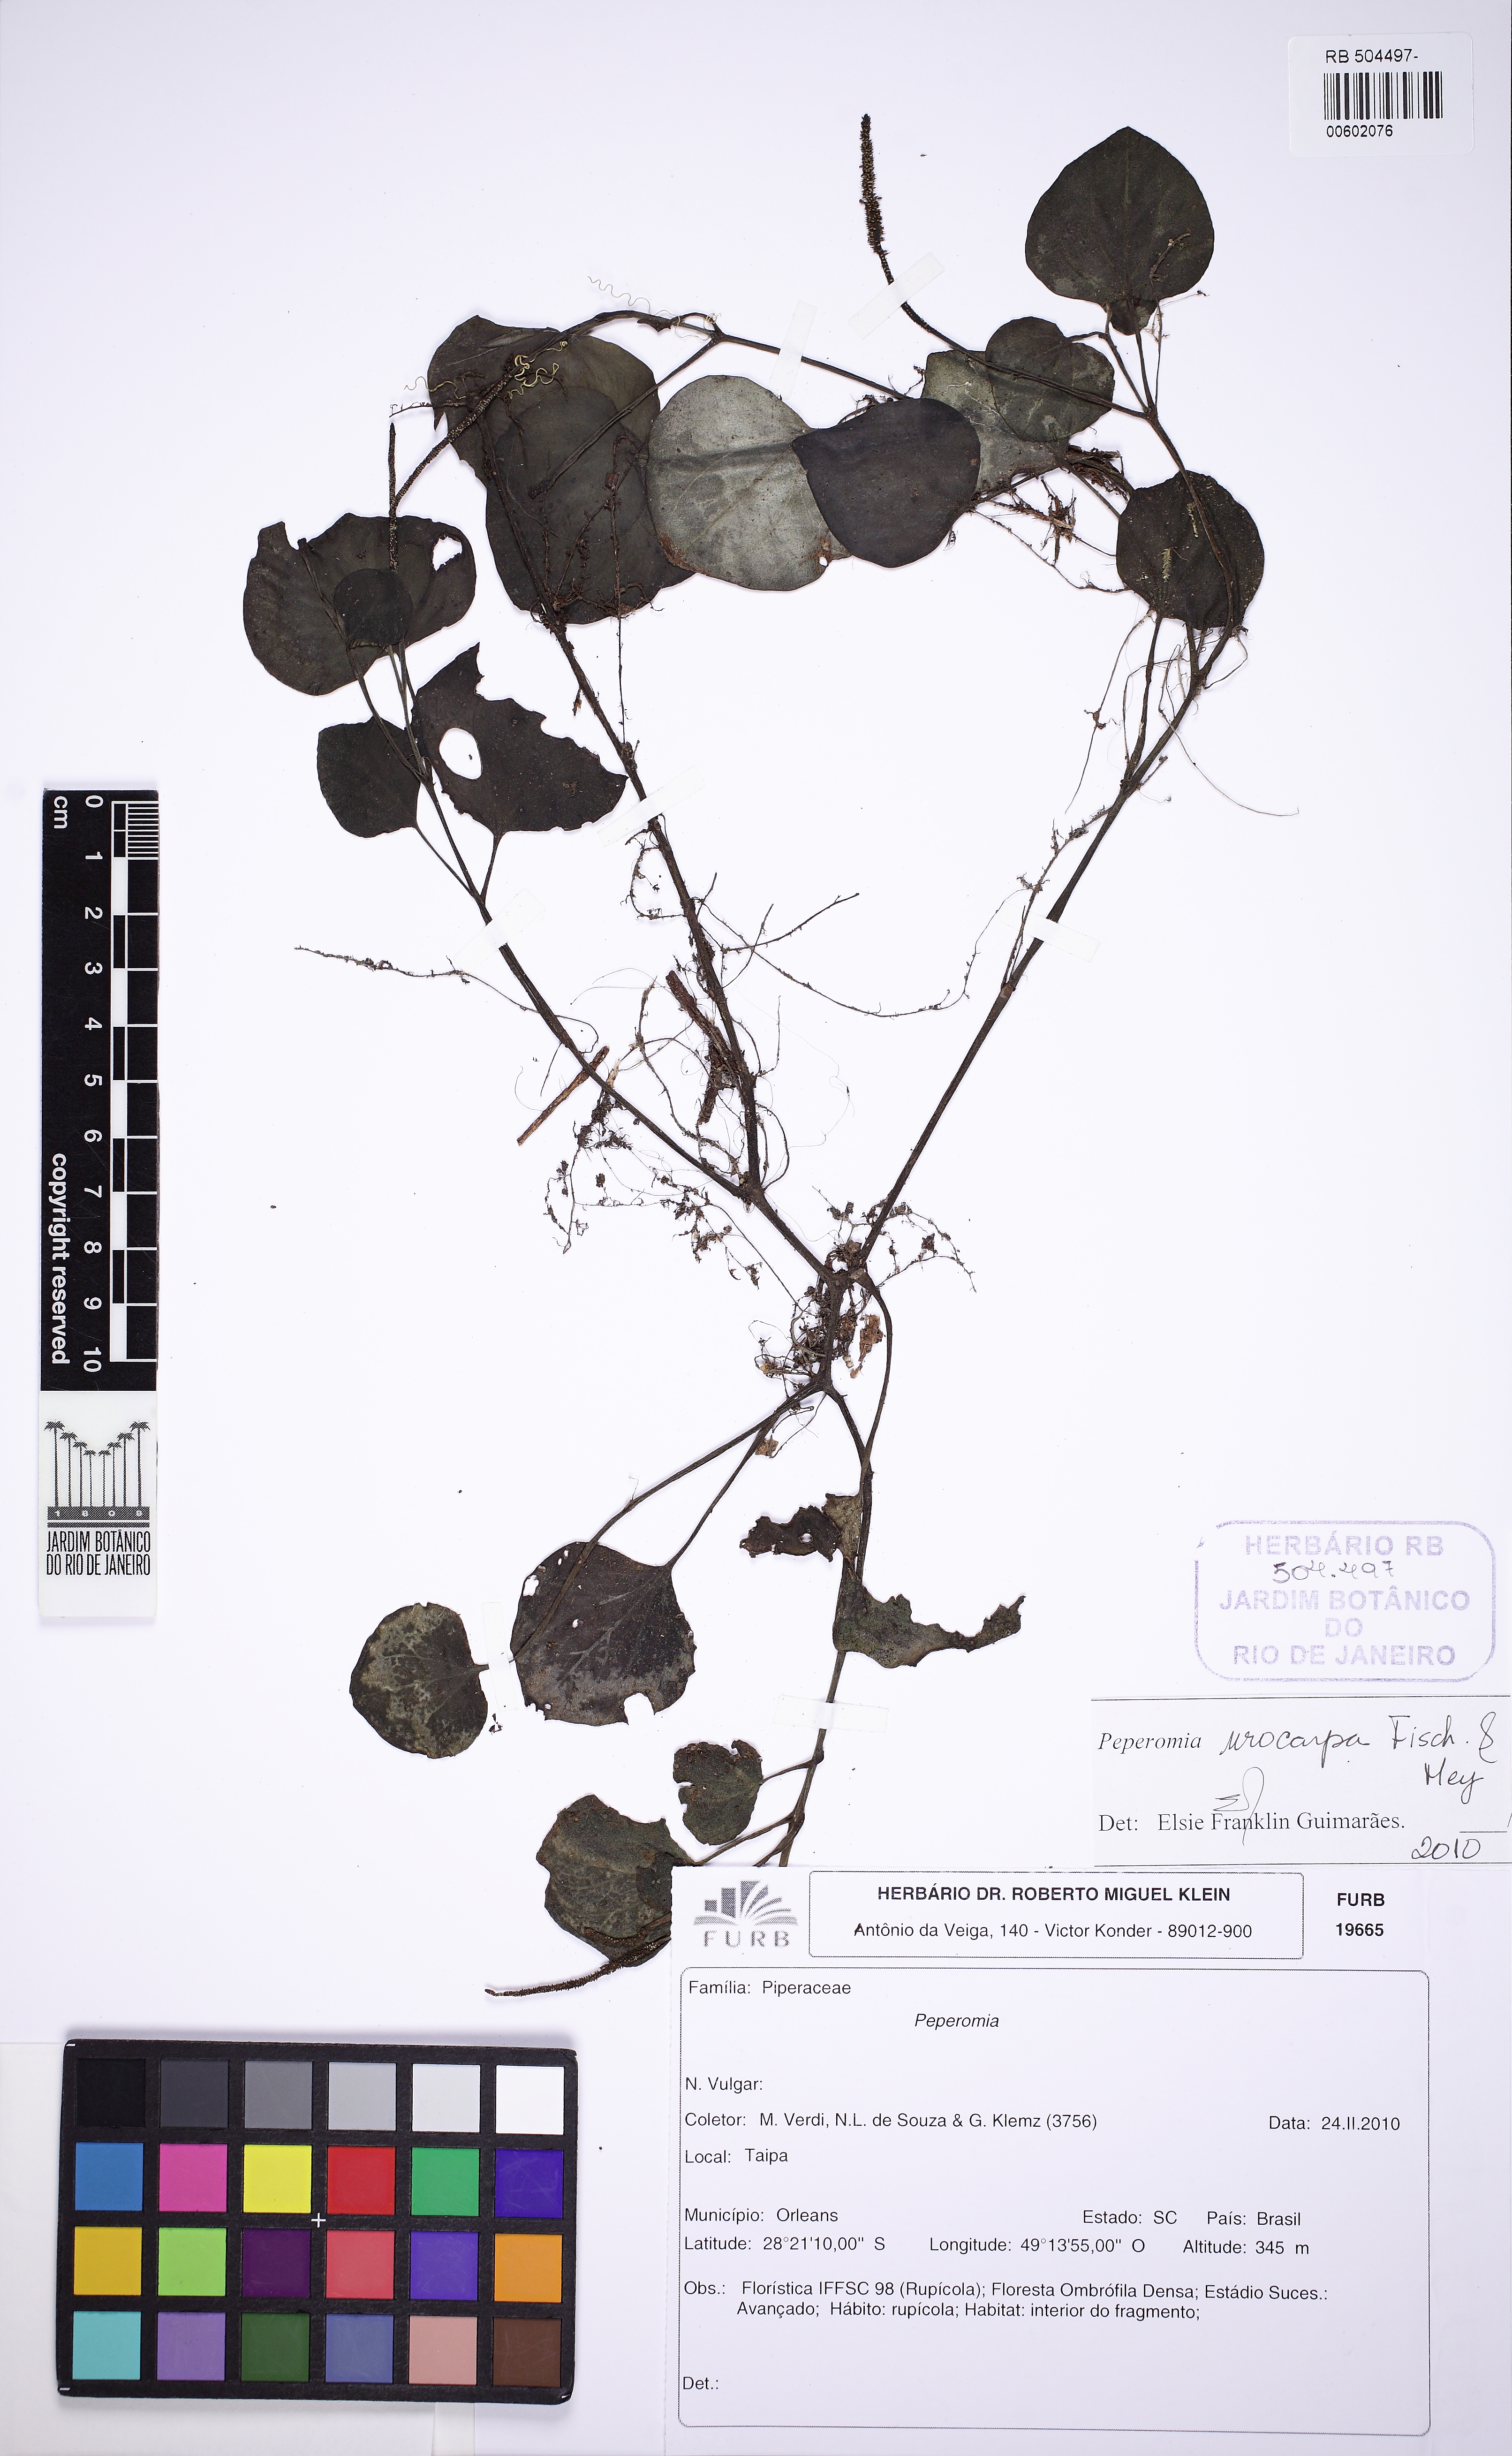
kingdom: Plantae
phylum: Tracheophyta
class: Magnoliopsida
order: Piperales
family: Piperaceae
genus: Peperomia
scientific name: Peperomia urocarpa
